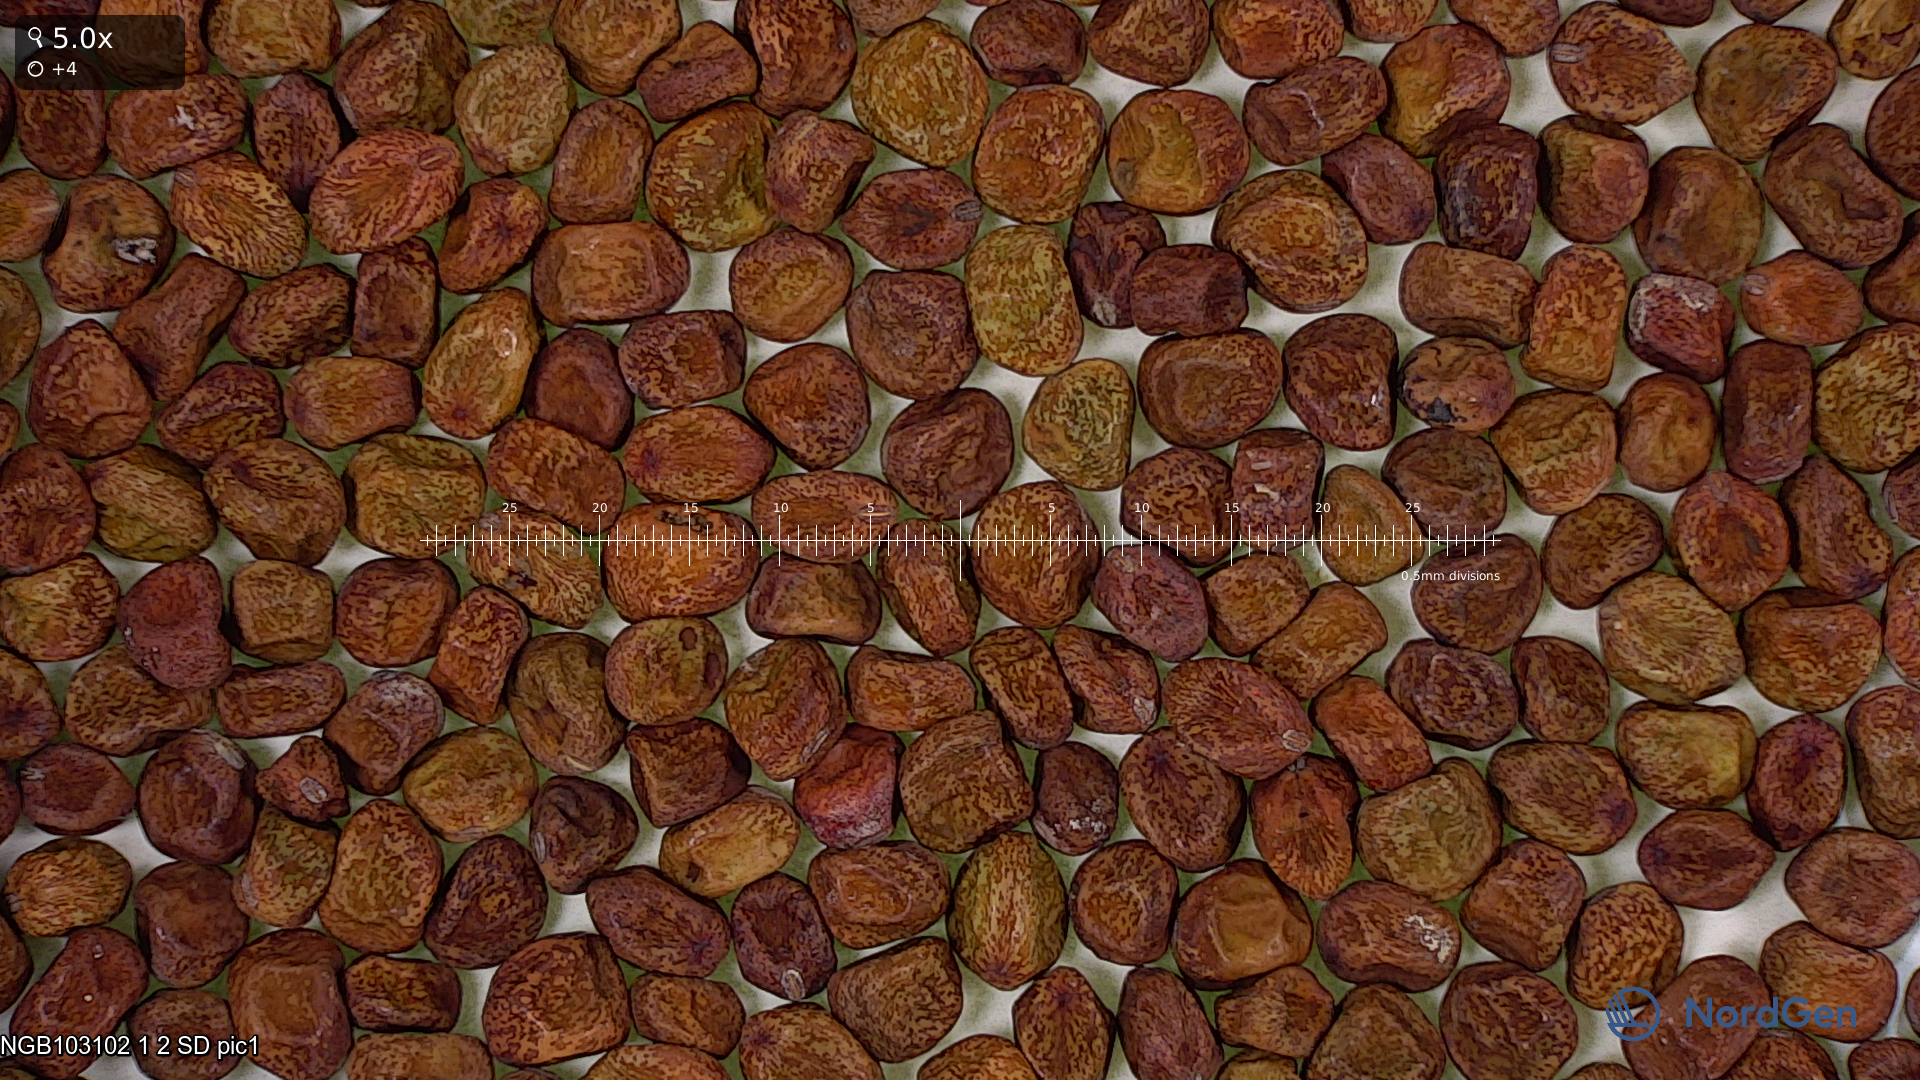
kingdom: Plantae
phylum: Tracheophyta
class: Magnoliopsida
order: Fabales
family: Fabaceae
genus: Lathyrus
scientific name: Lathyrus oleraceus
